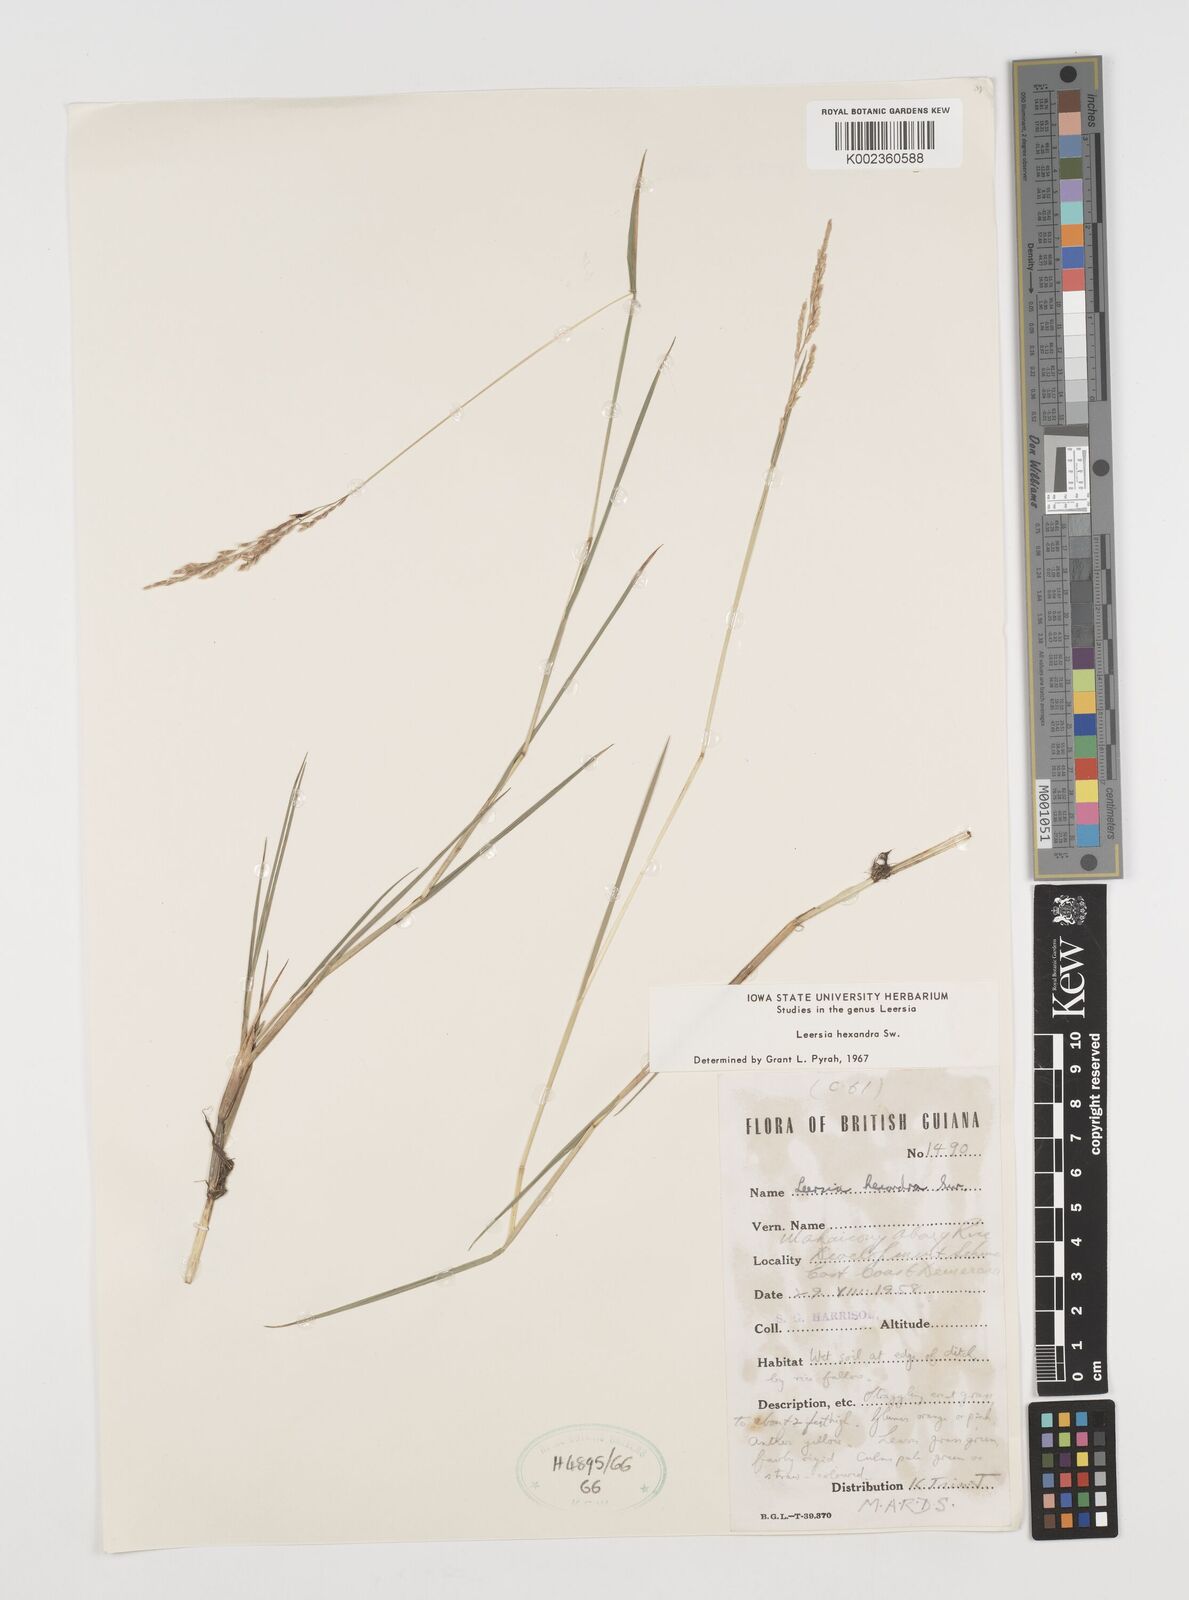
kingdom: Plantae
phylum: Tracheophyta
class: Liliopsida
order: Poales
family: Poaceae
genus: Leersia
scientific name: Leersia hexandra
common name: Southern cut grass
